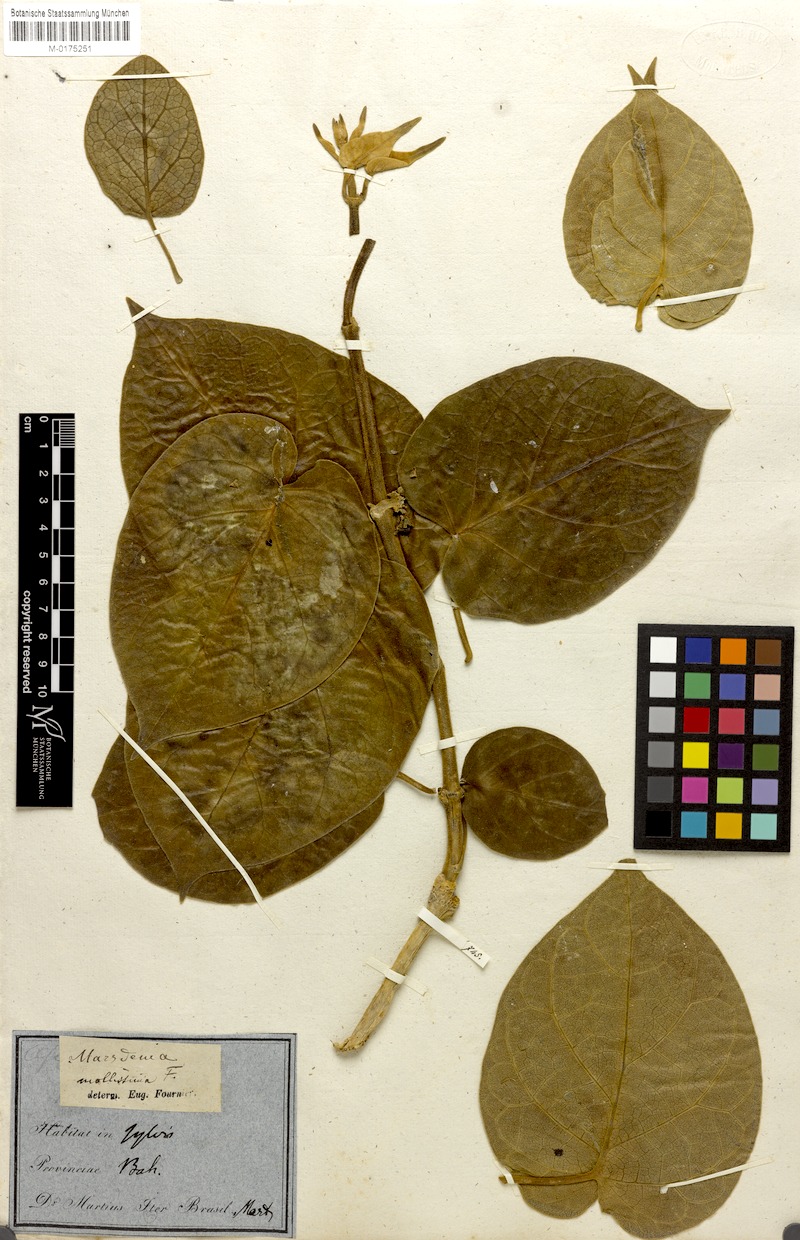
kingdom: Plantae
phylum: Tracheophyta
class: Magnoliopsida
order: Gentianales
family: Apocynaceae
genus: Ruehssia
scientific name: Ruehssia altissima
